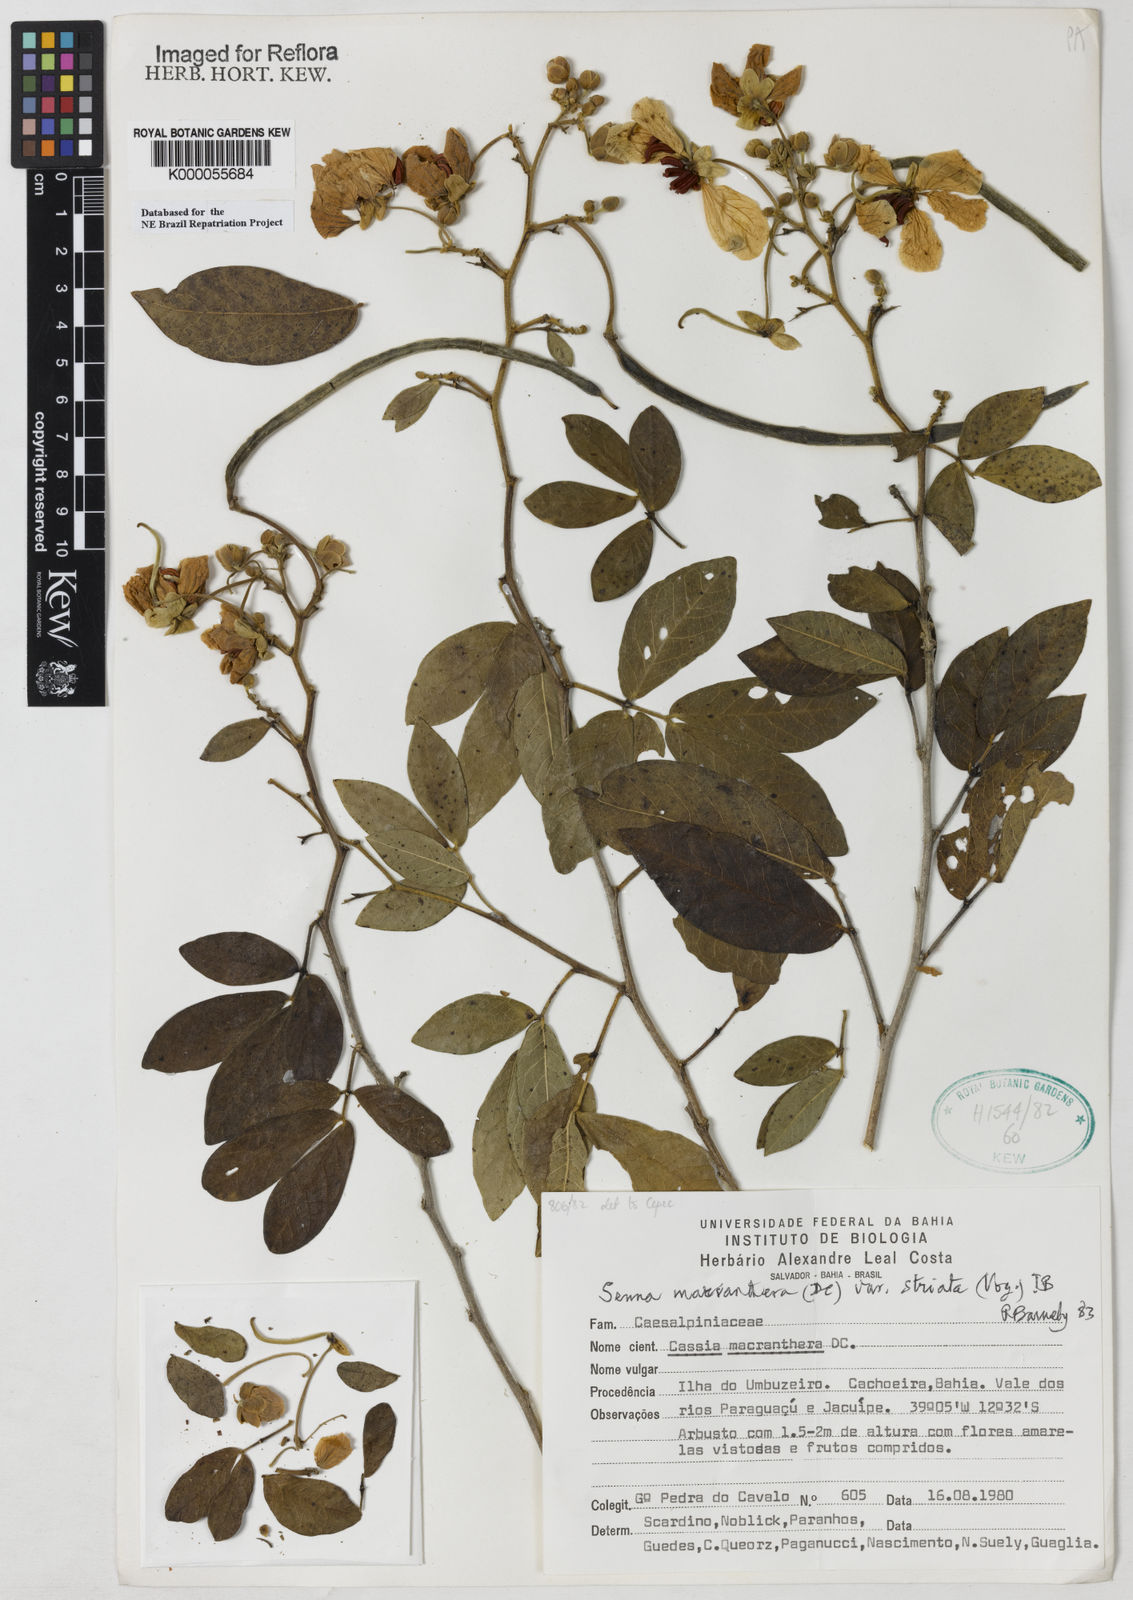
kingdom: Plantae
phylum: Tracheophyta
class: Magnoliopsida
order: Fabales
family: Fabaceae
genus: Senna
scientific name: Senna macranthera
